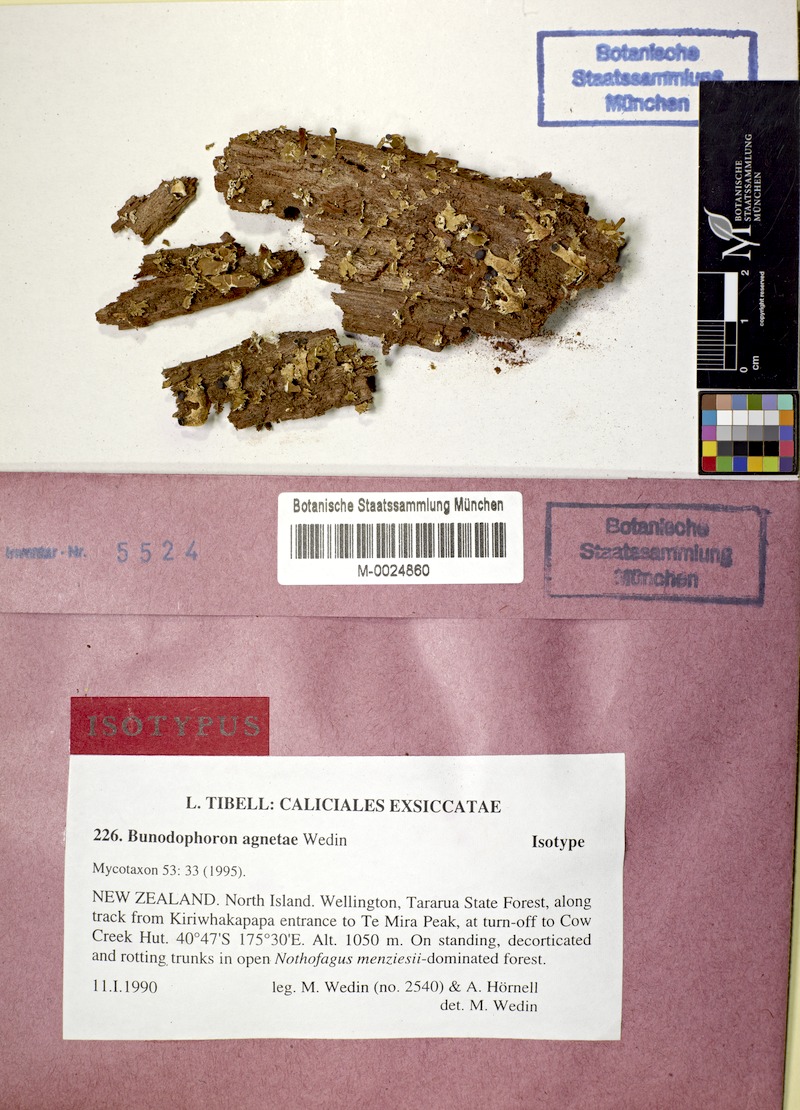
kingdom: Fungi
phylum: Ascomycota
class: Lecanoromycetes
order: Lecanorales
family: Sphaerophoraceae
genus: Bunodophoron
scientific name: Bunodophoron agnetae
